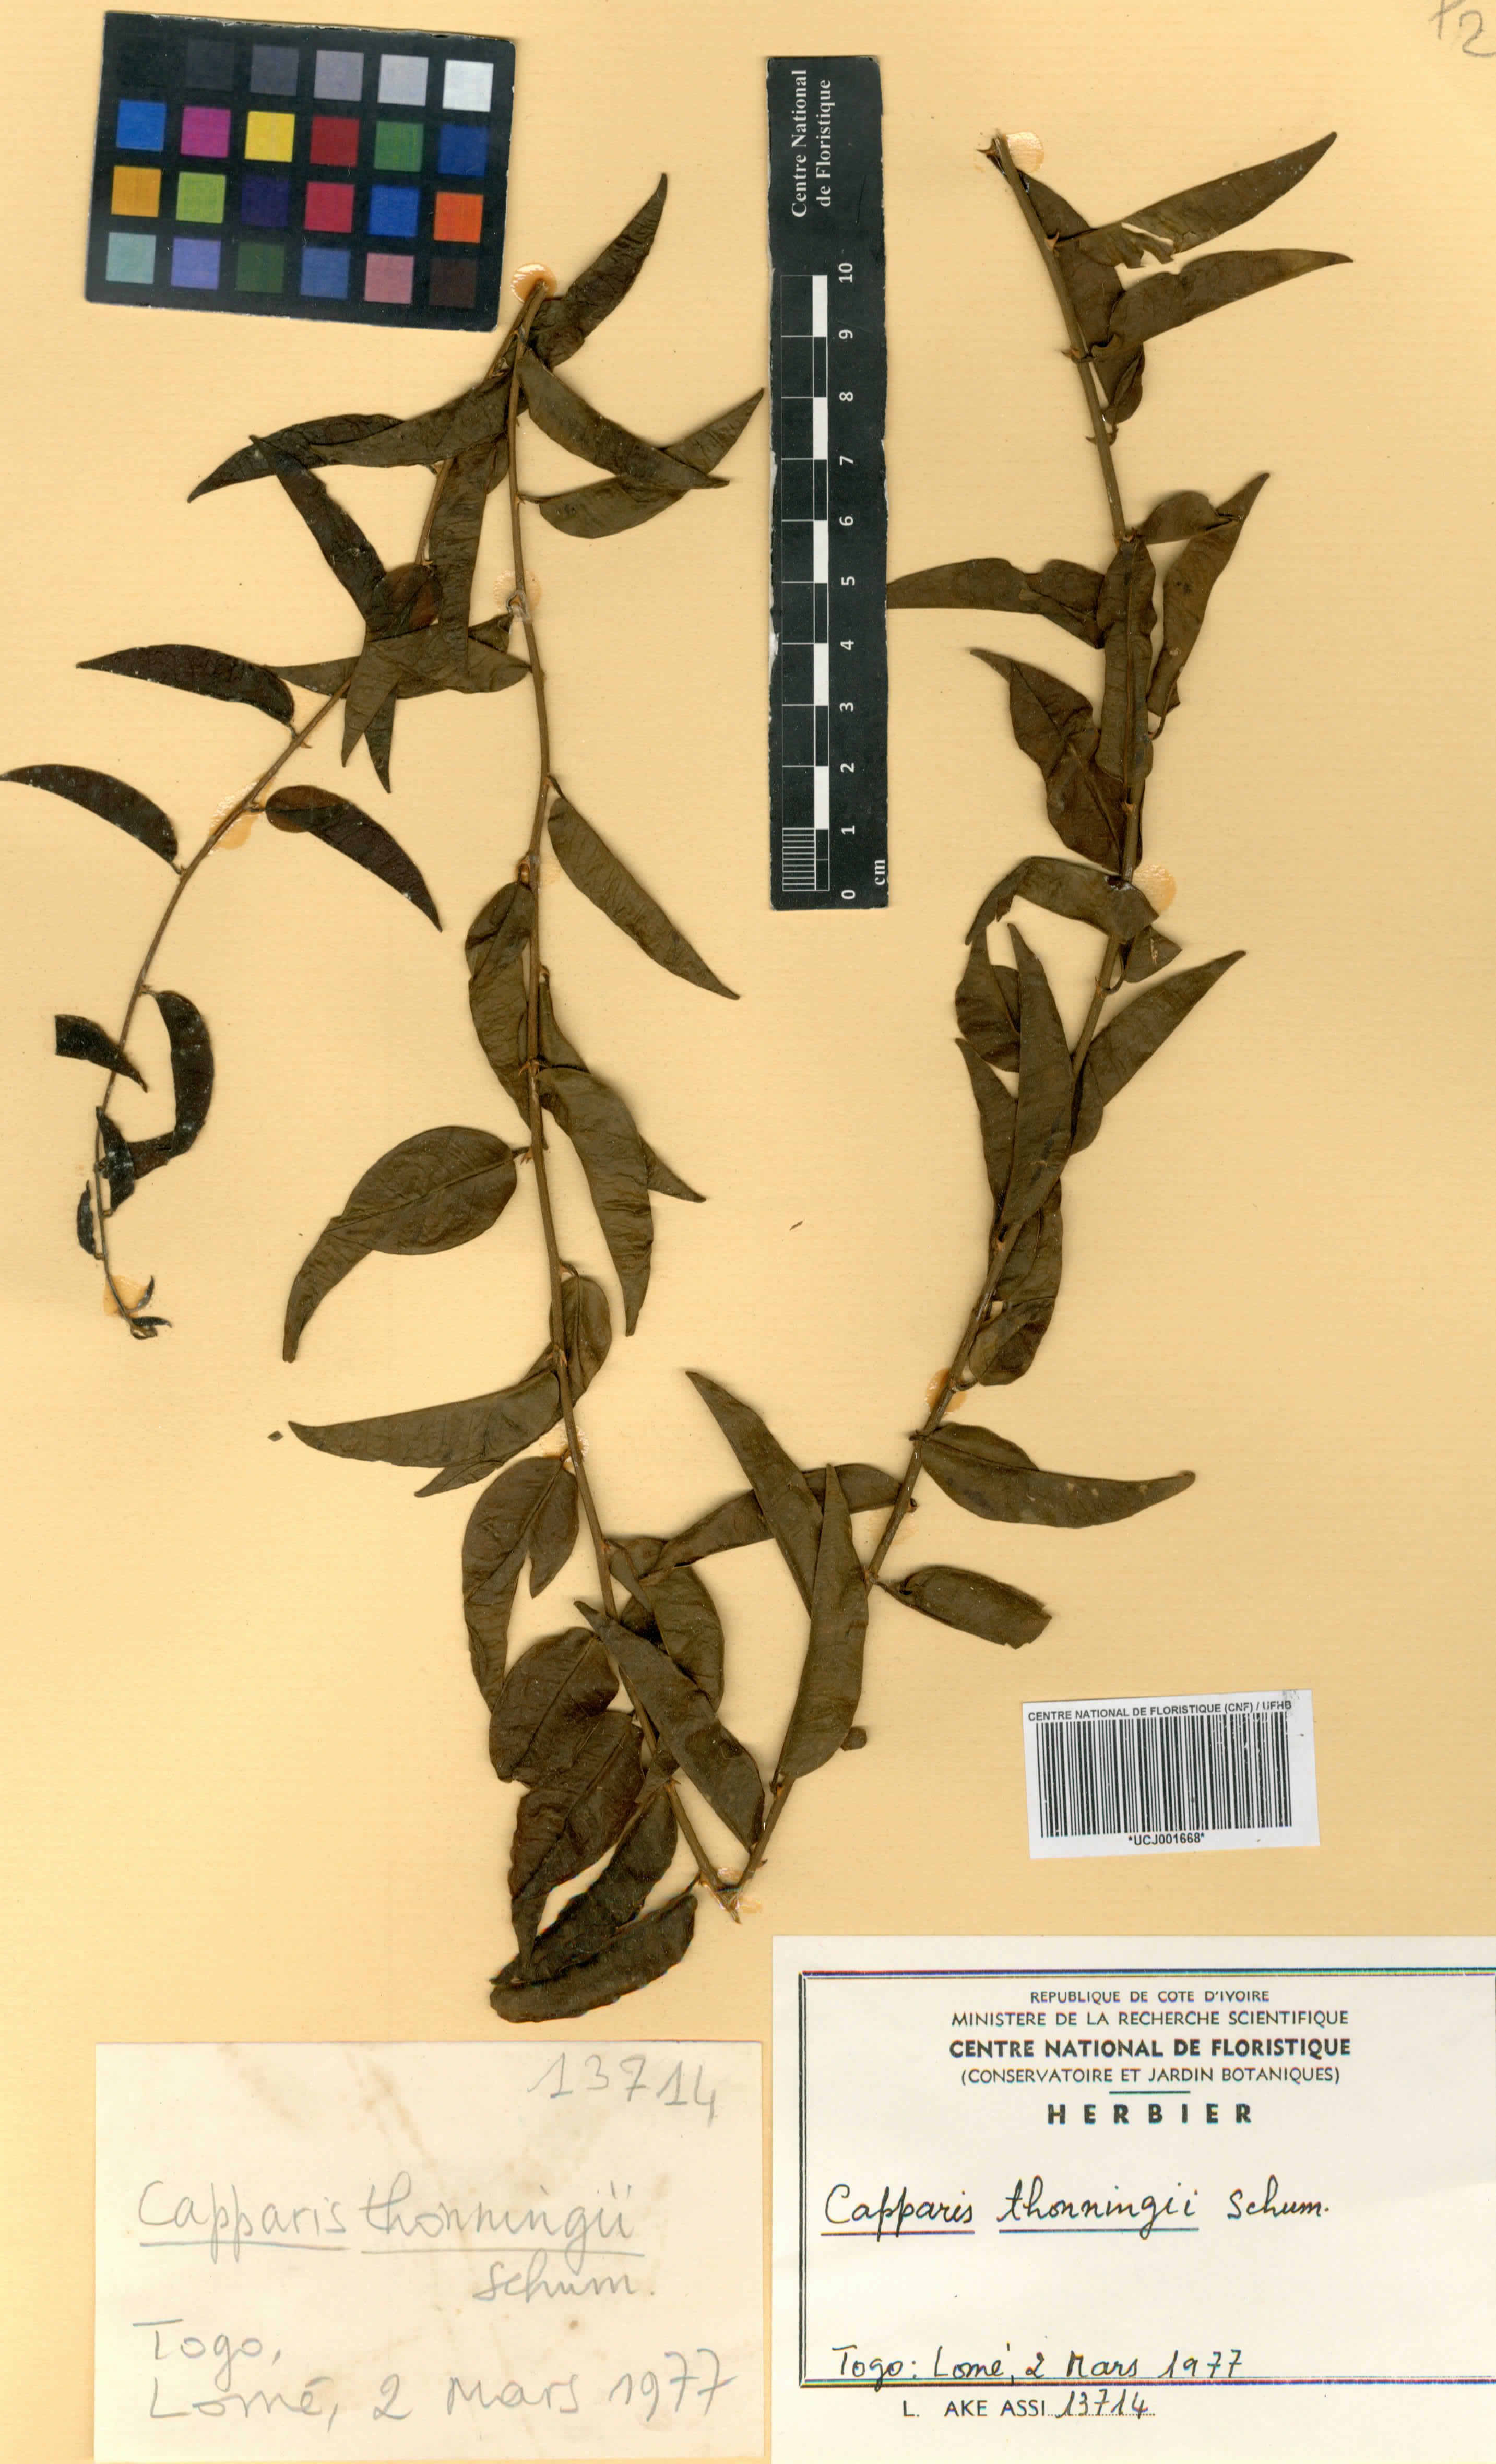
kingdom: Plantae
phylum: Tracheophyta
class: Magnoliopsida
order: Brassicales
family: Capparaceae
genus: Capparis
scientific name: Capparis brassii
